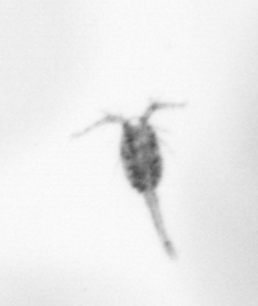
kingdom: Animalia
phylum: Arthropoda
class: Copepoda
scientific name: Copepoda
